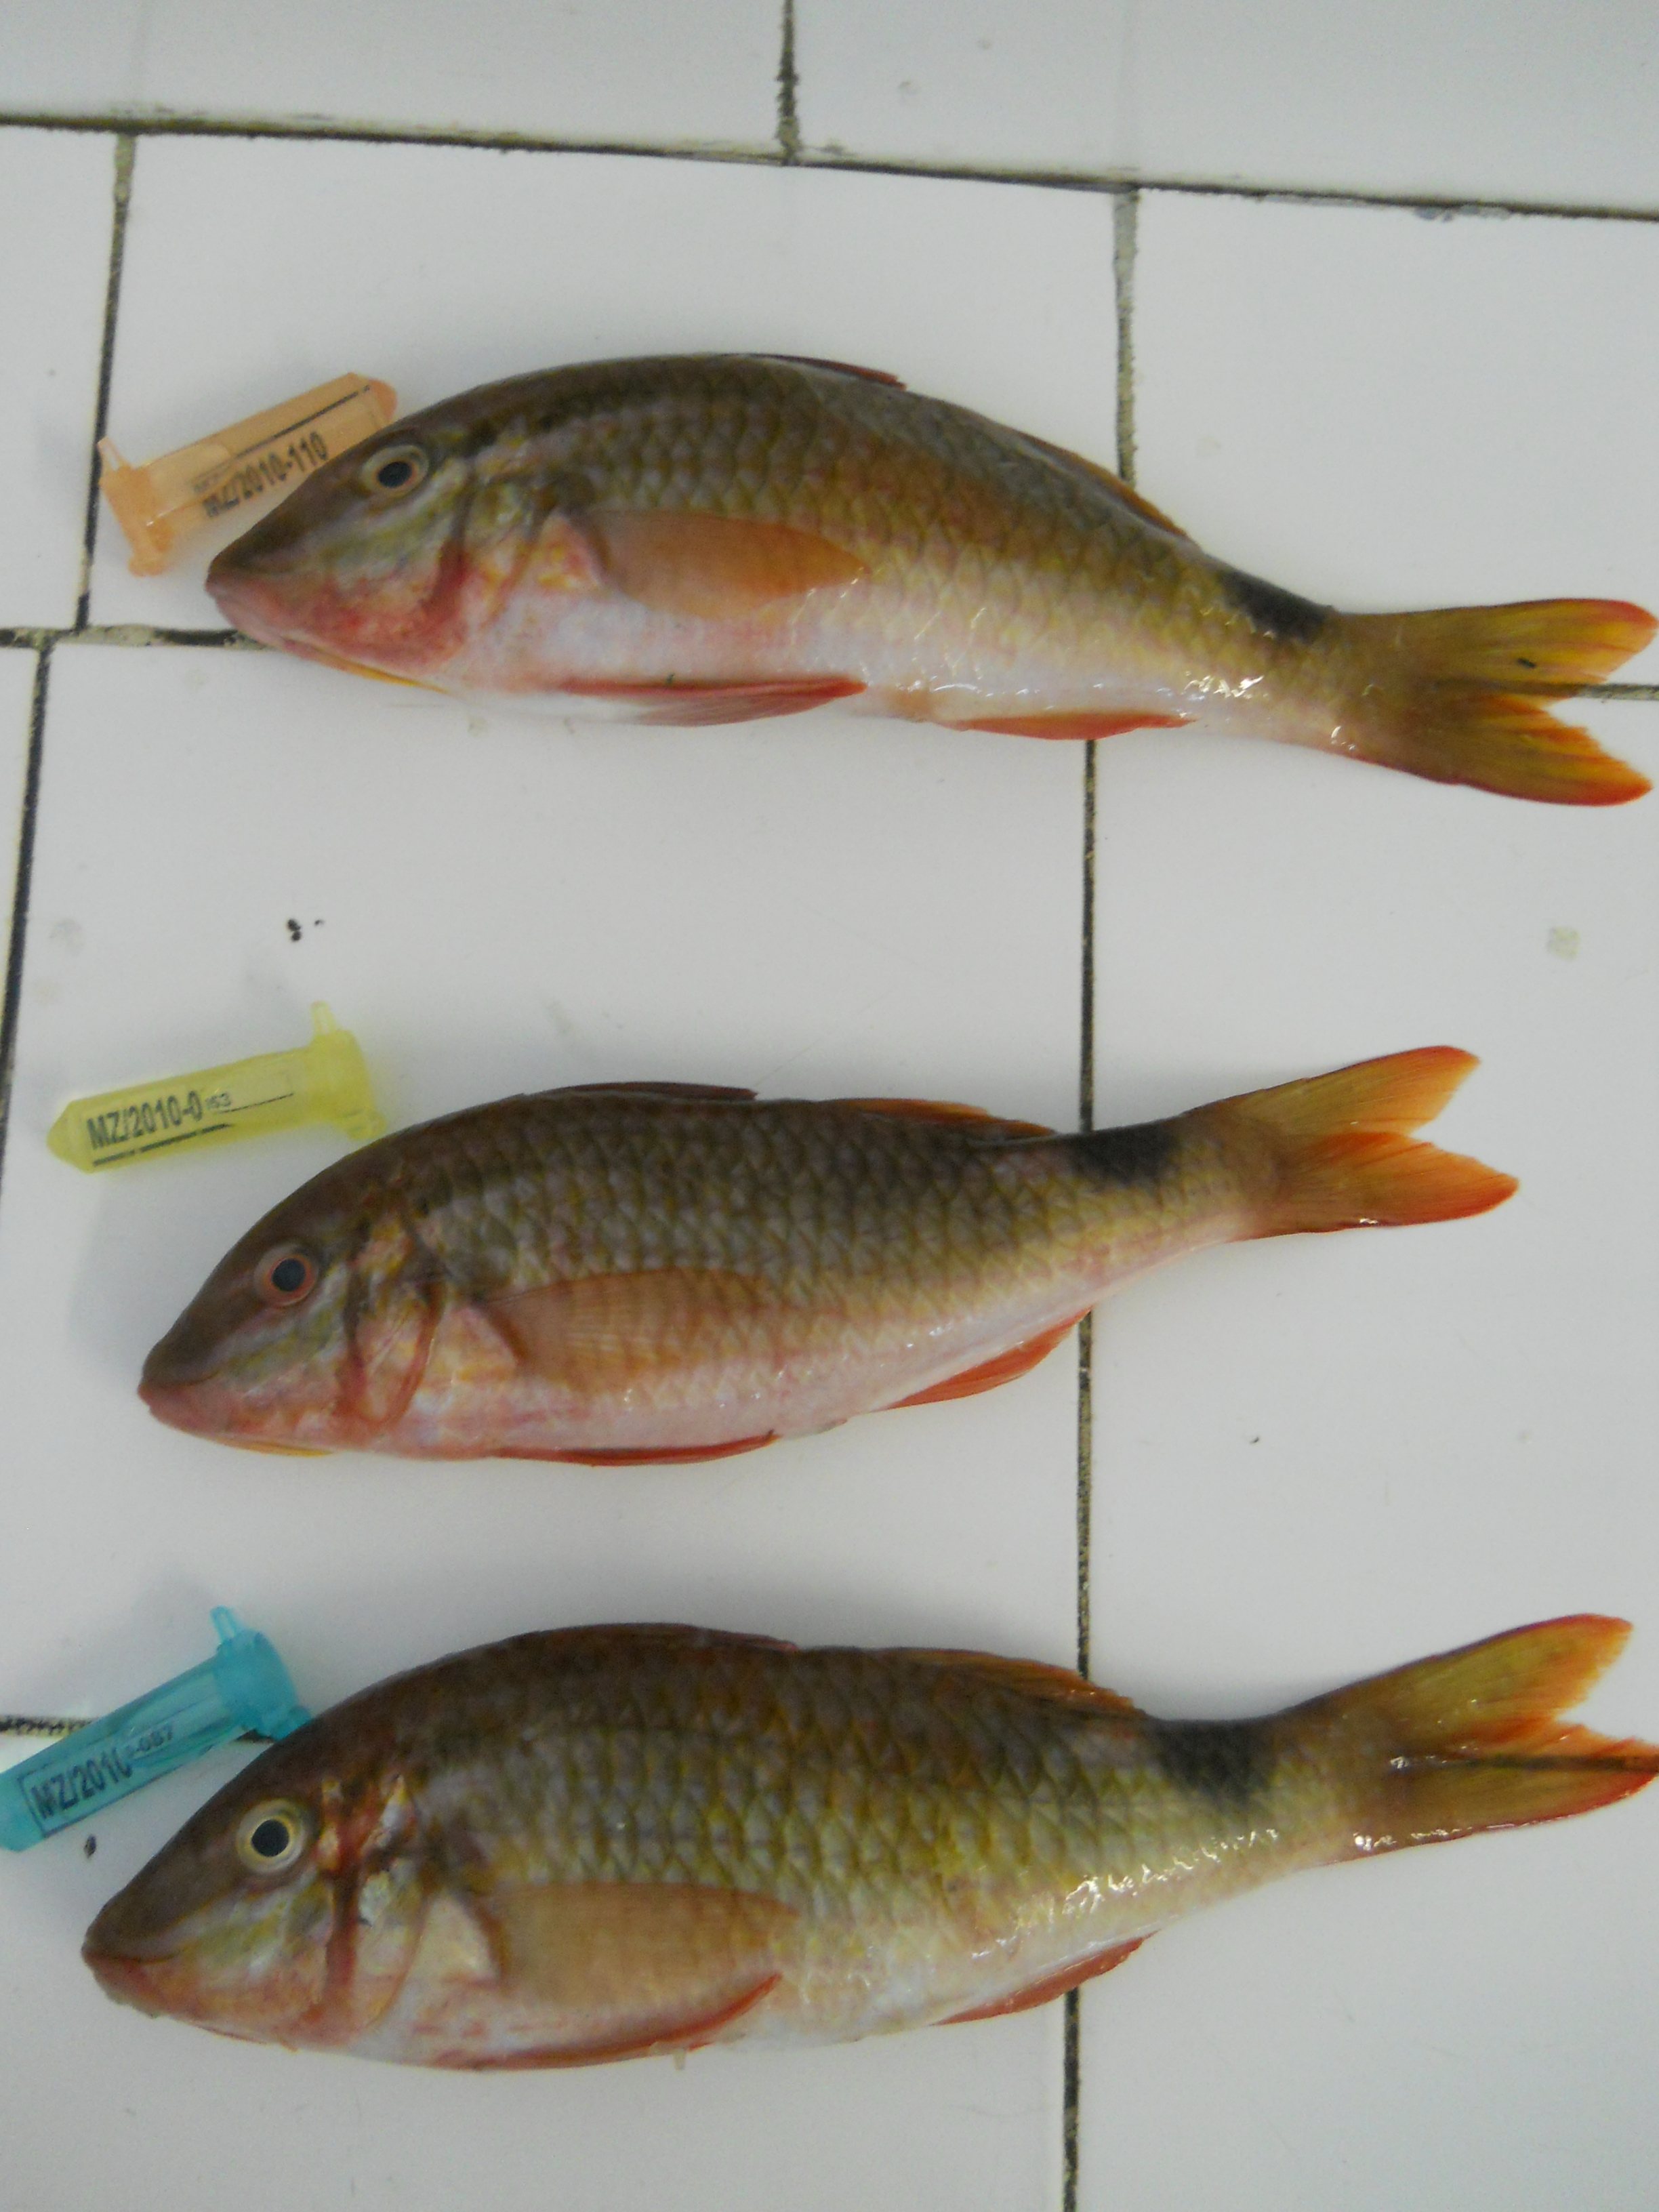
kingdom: Animalia
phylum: Chordata
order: Perciformes
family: Mullidae
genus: Parupeneus
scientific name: Parupeneus rubescens
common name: Rosy goatfish
